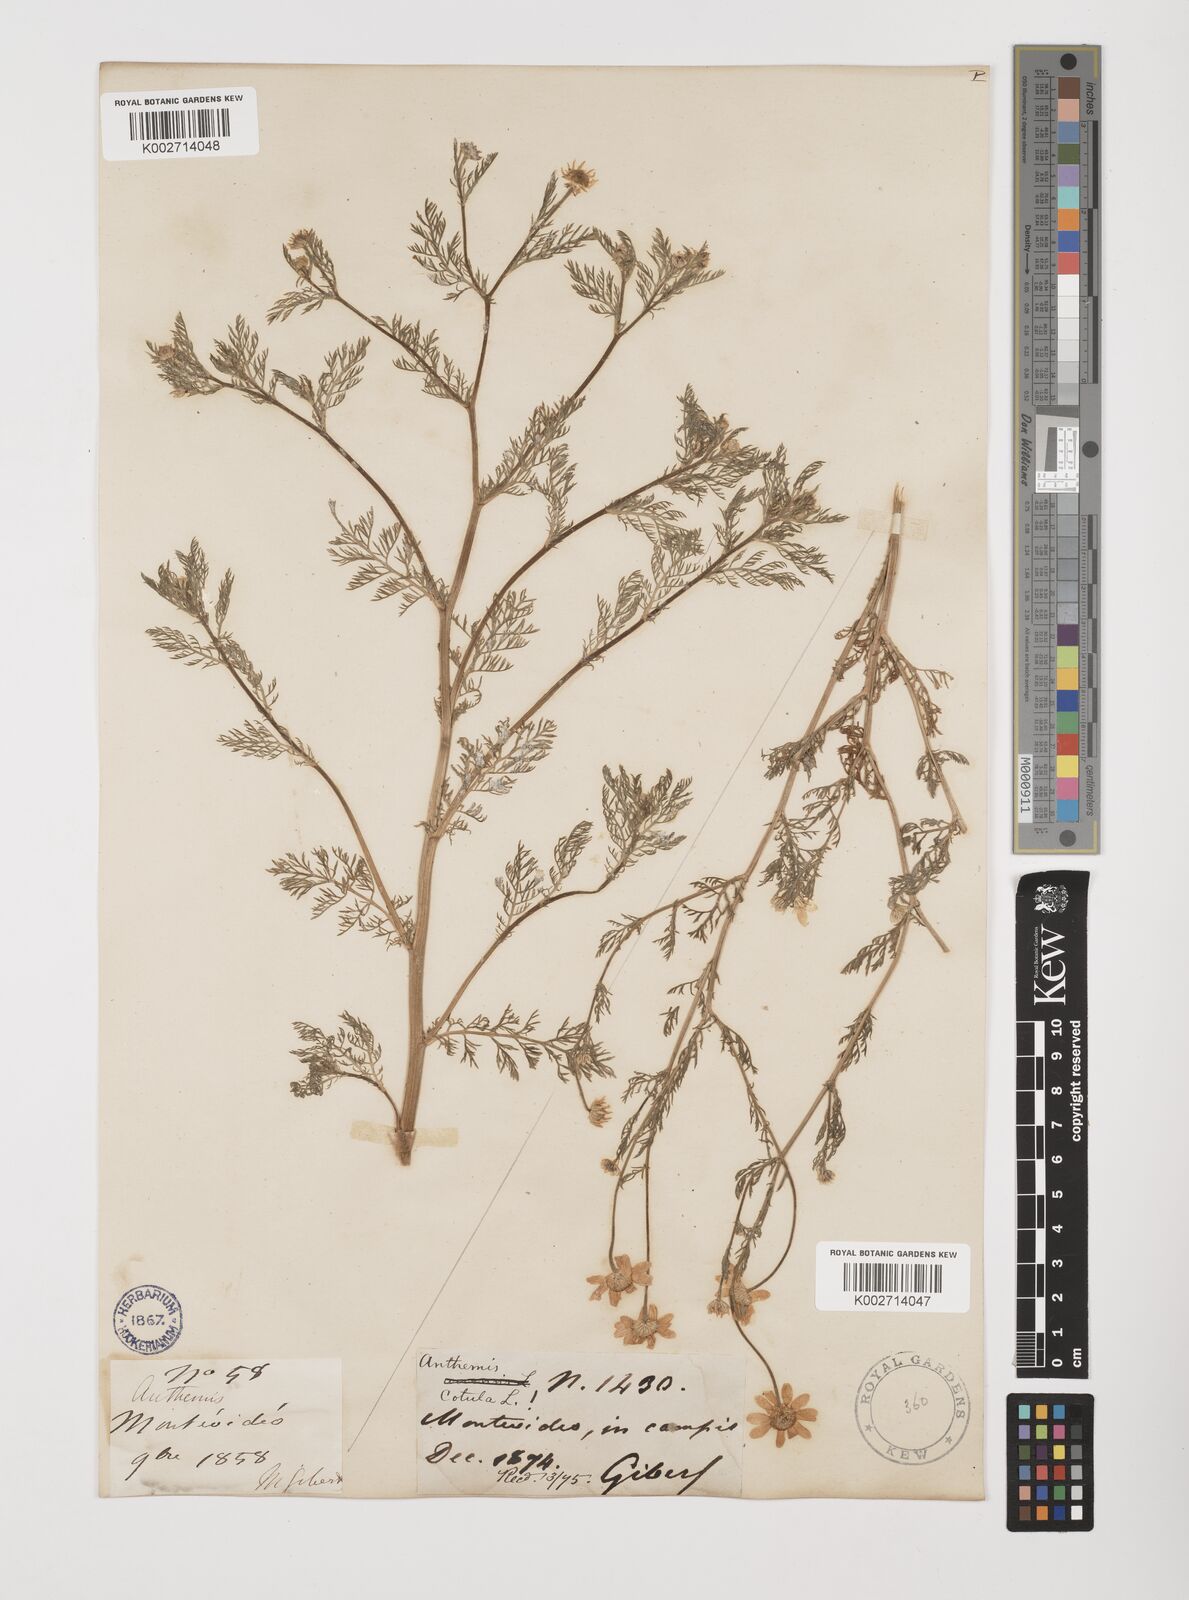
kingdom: Plantae
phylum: Tracheophyta
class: Magnoliopsida
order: Asterales
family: Asteraceae
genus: Anthemis
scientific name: Anthemis cotula
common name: Stinking chamomile
